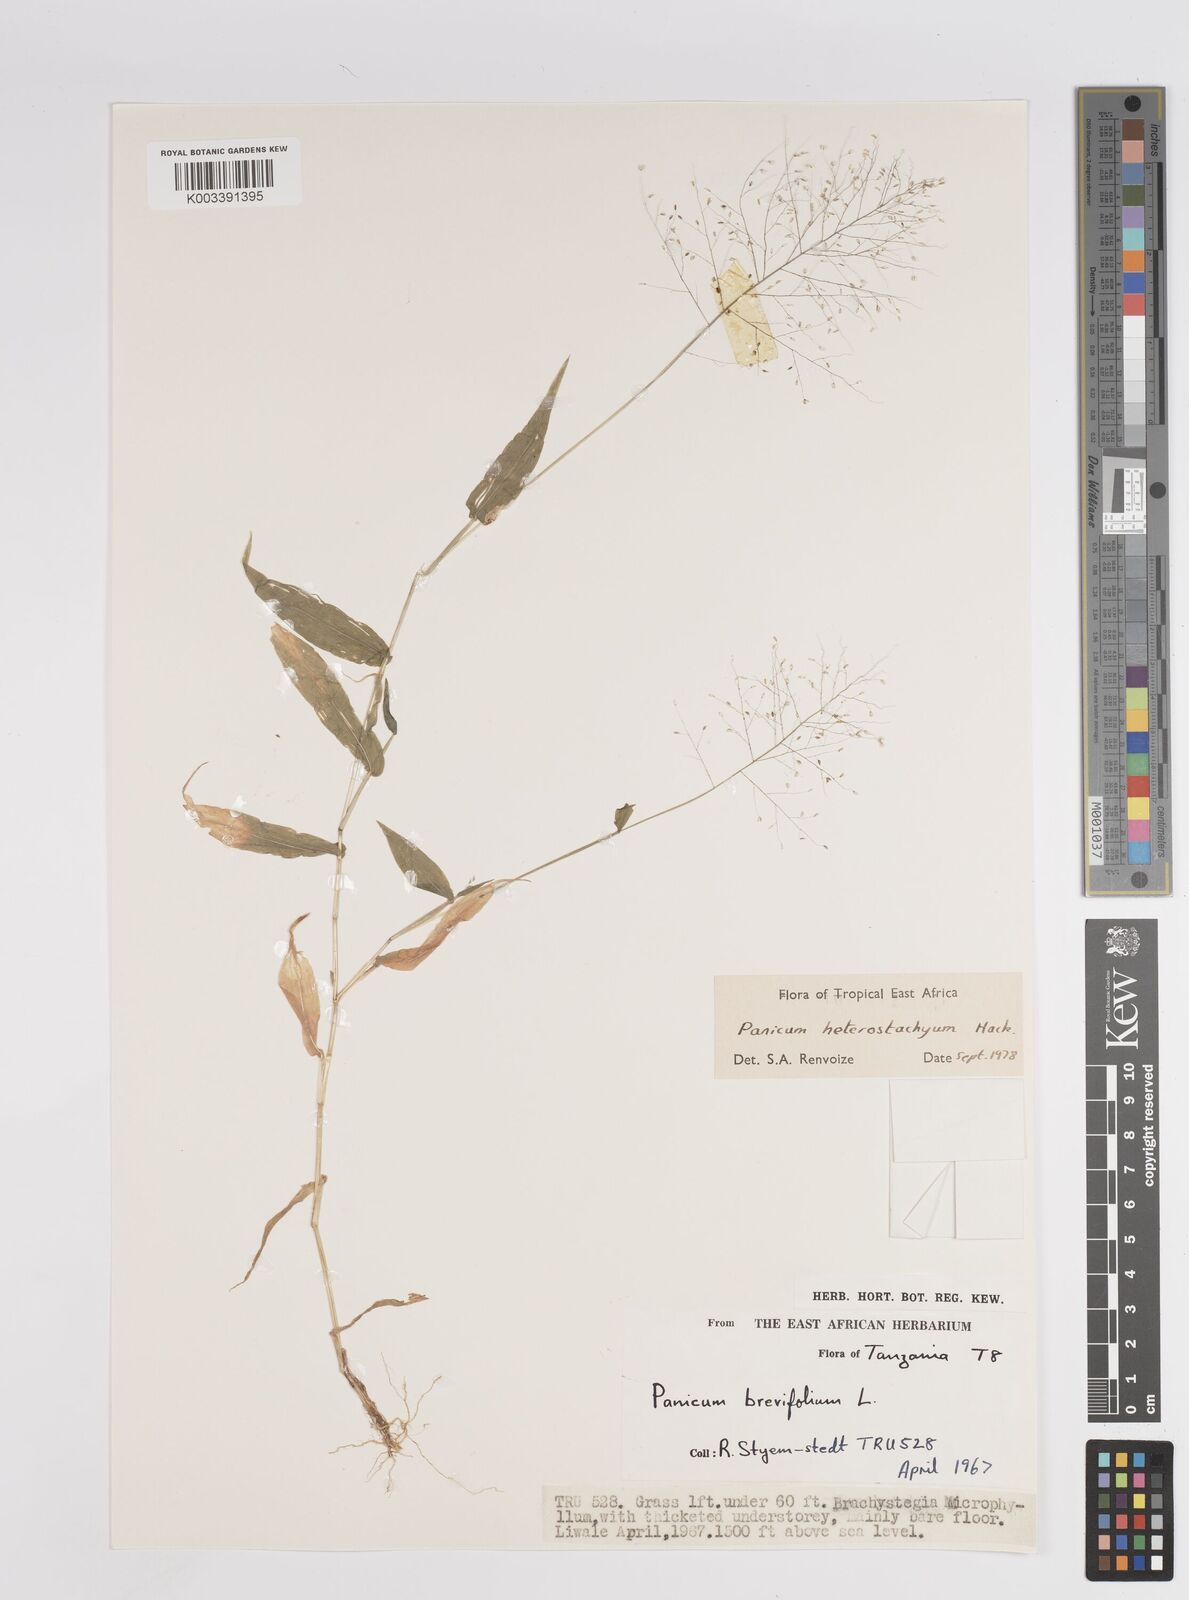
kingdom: Plantae
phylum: Tracheophyta
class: Liliopsida
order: Poales
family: Poaceae
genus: Panicum
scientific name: Panicum hirtum
